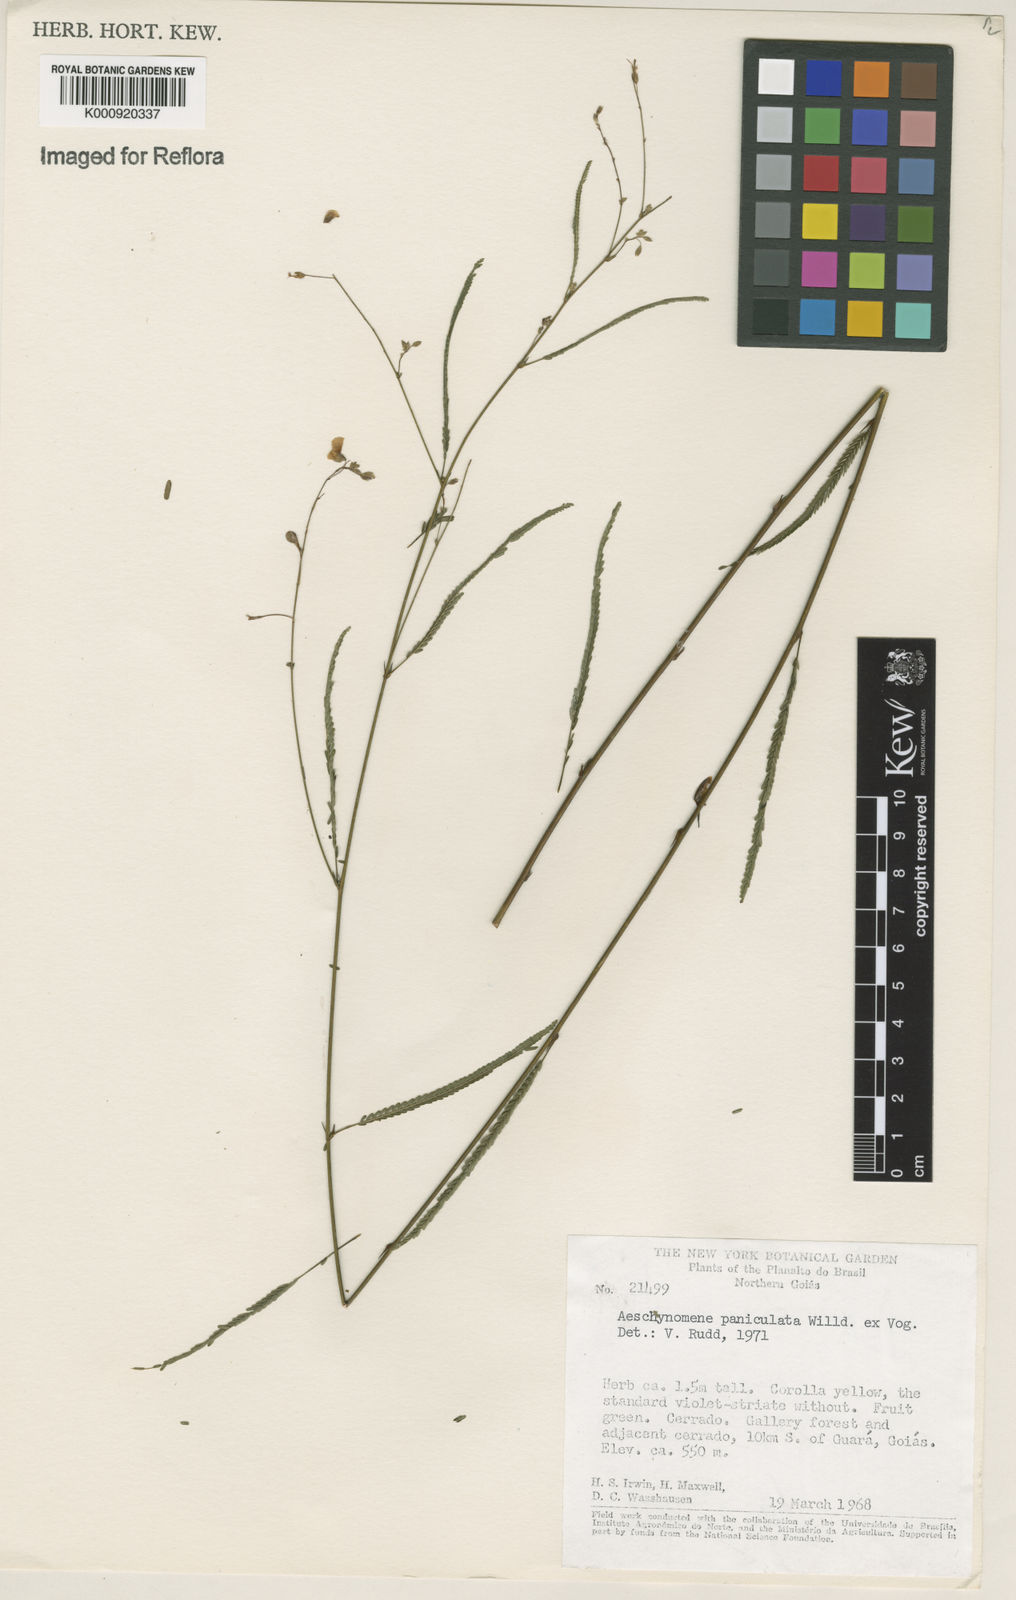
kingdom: Plantae
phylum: Tracheophyta
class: Magnoliopsida
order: Fabales
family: Fabaceae
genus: Ctenodon
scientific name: Ctenodon paniculatus
